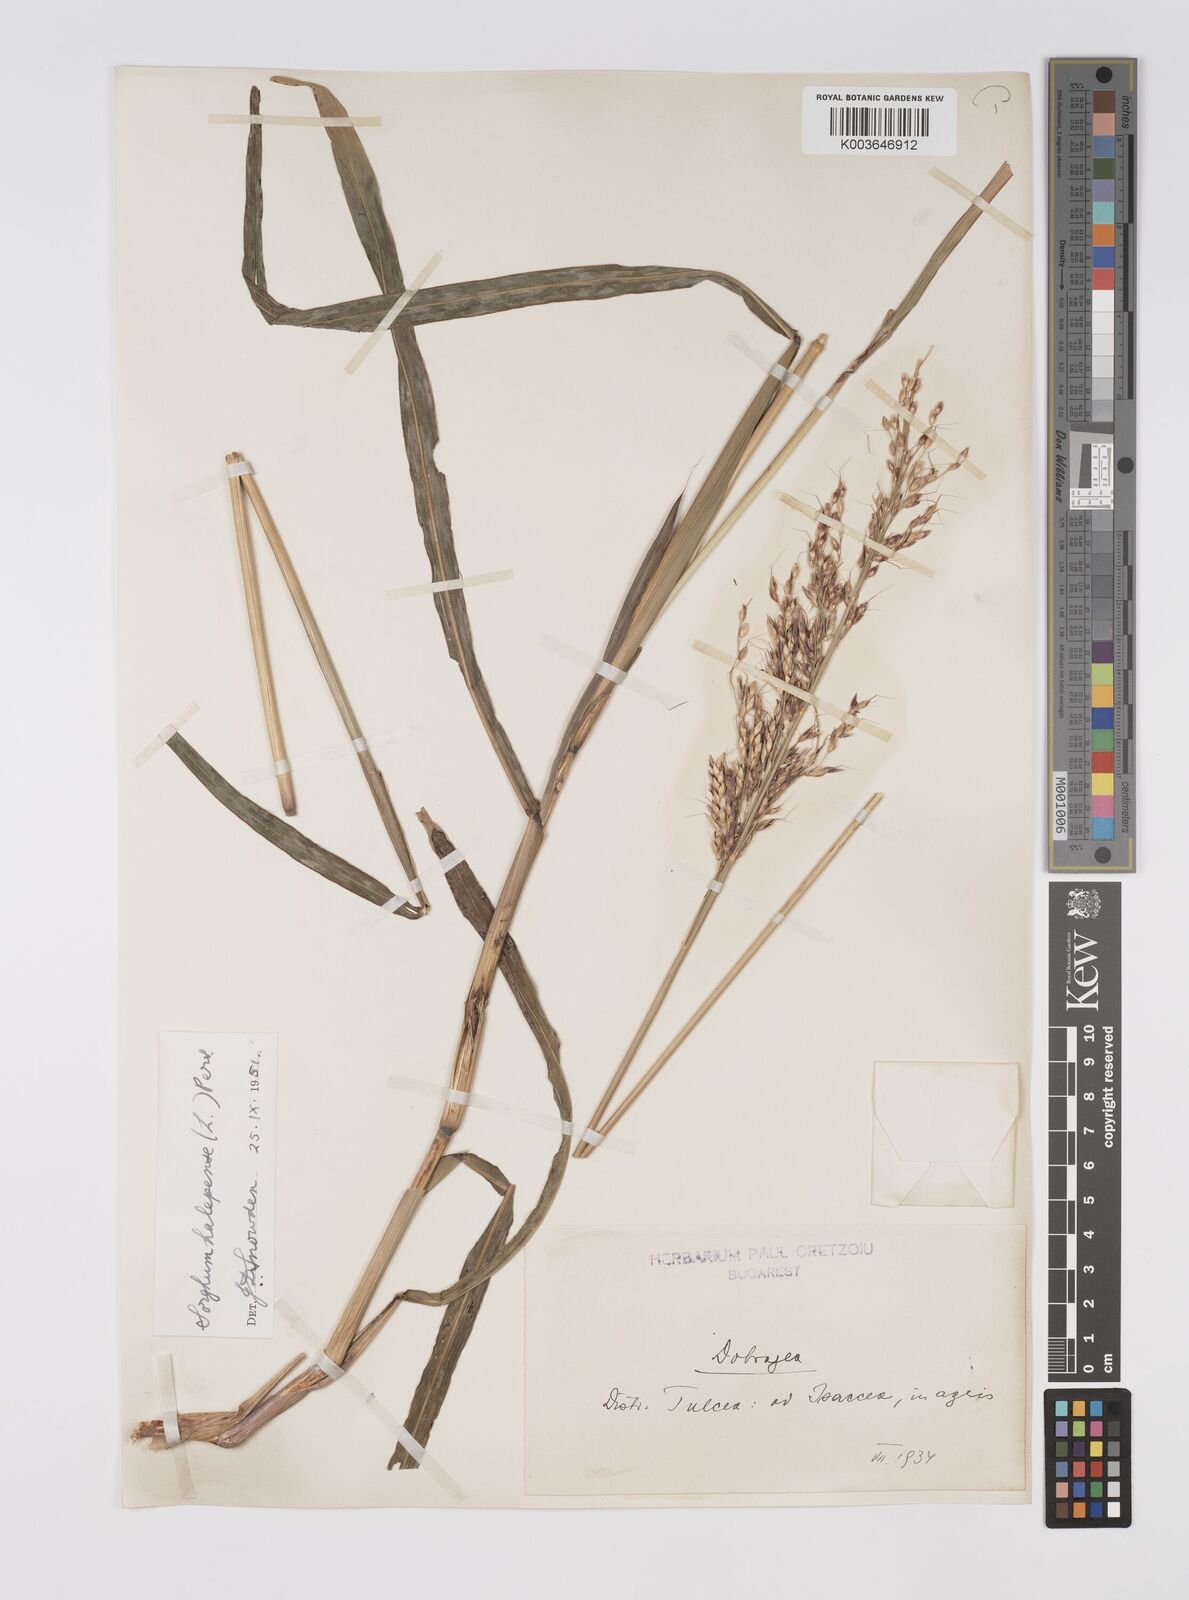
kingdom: Plantae
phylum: Tracheophyta
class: Liliopsida
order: Poales
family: Poaceae
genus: Sorghum
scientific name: Sorghum halepense
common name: Johnson-grass
